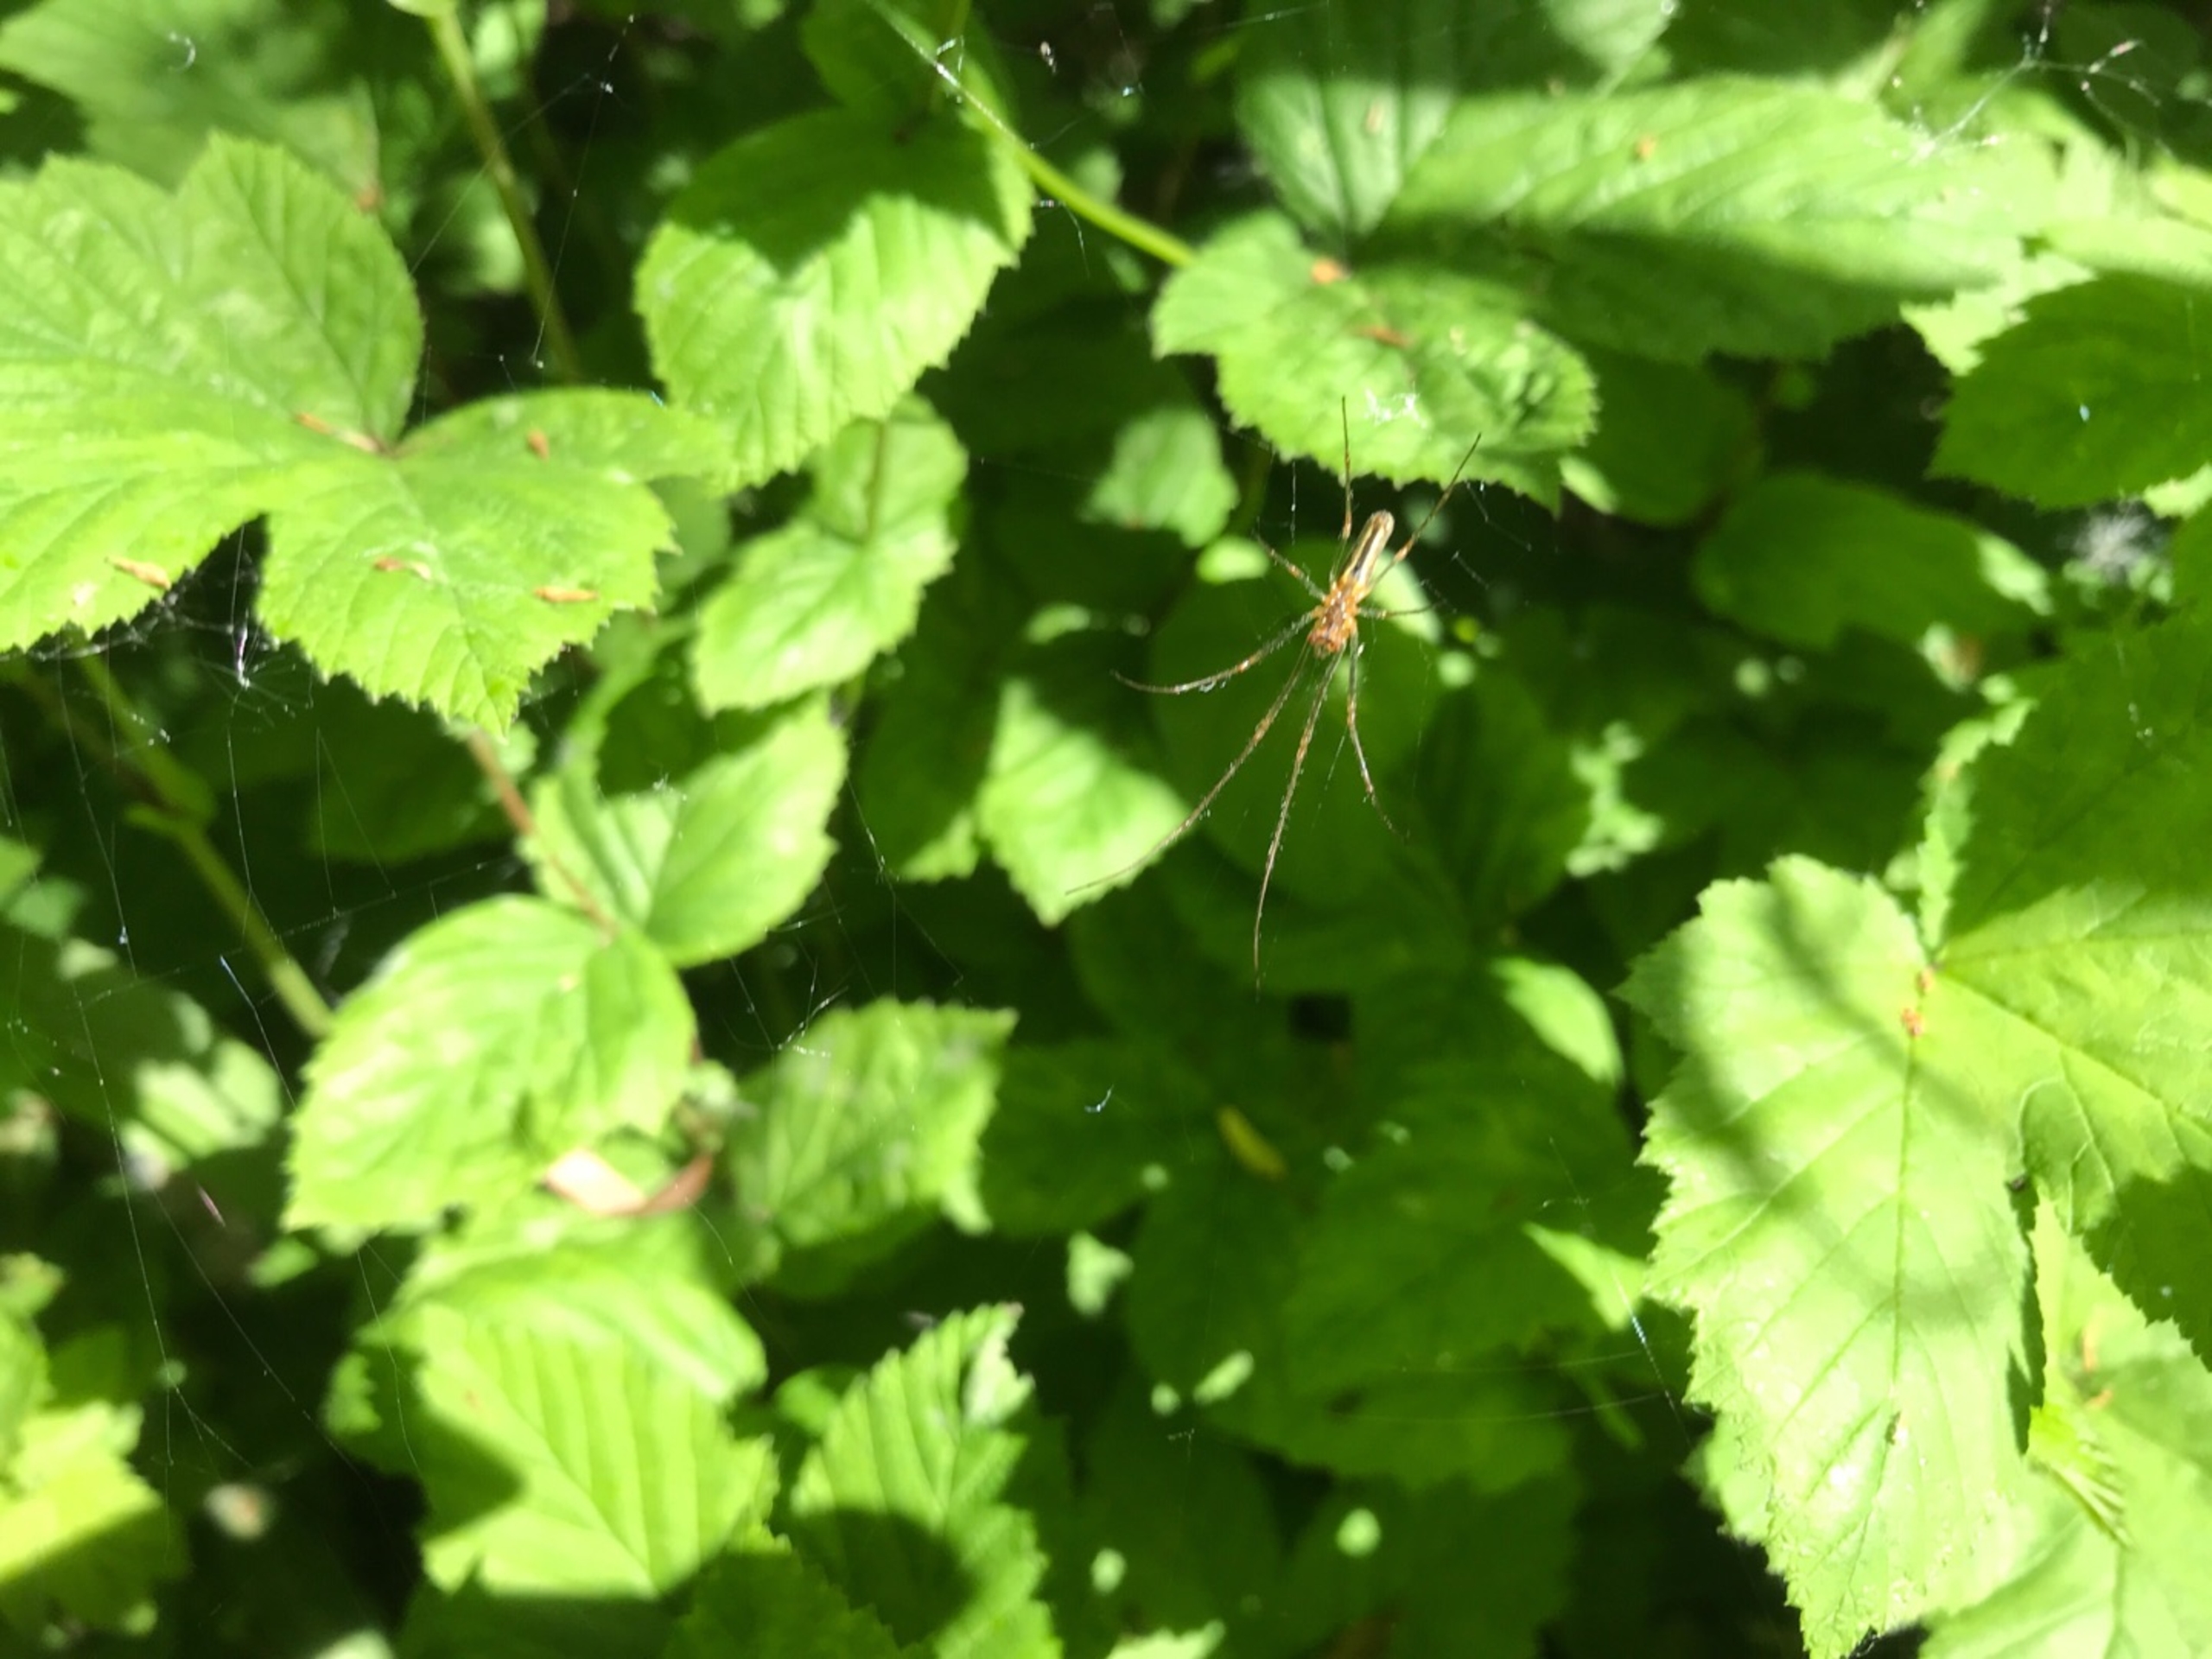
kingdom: Animalia
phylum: Arthropoda
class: Arachnida
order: Araneae
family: Tetragnathidae
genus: Tetragnatha
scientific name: Tetragnatha
